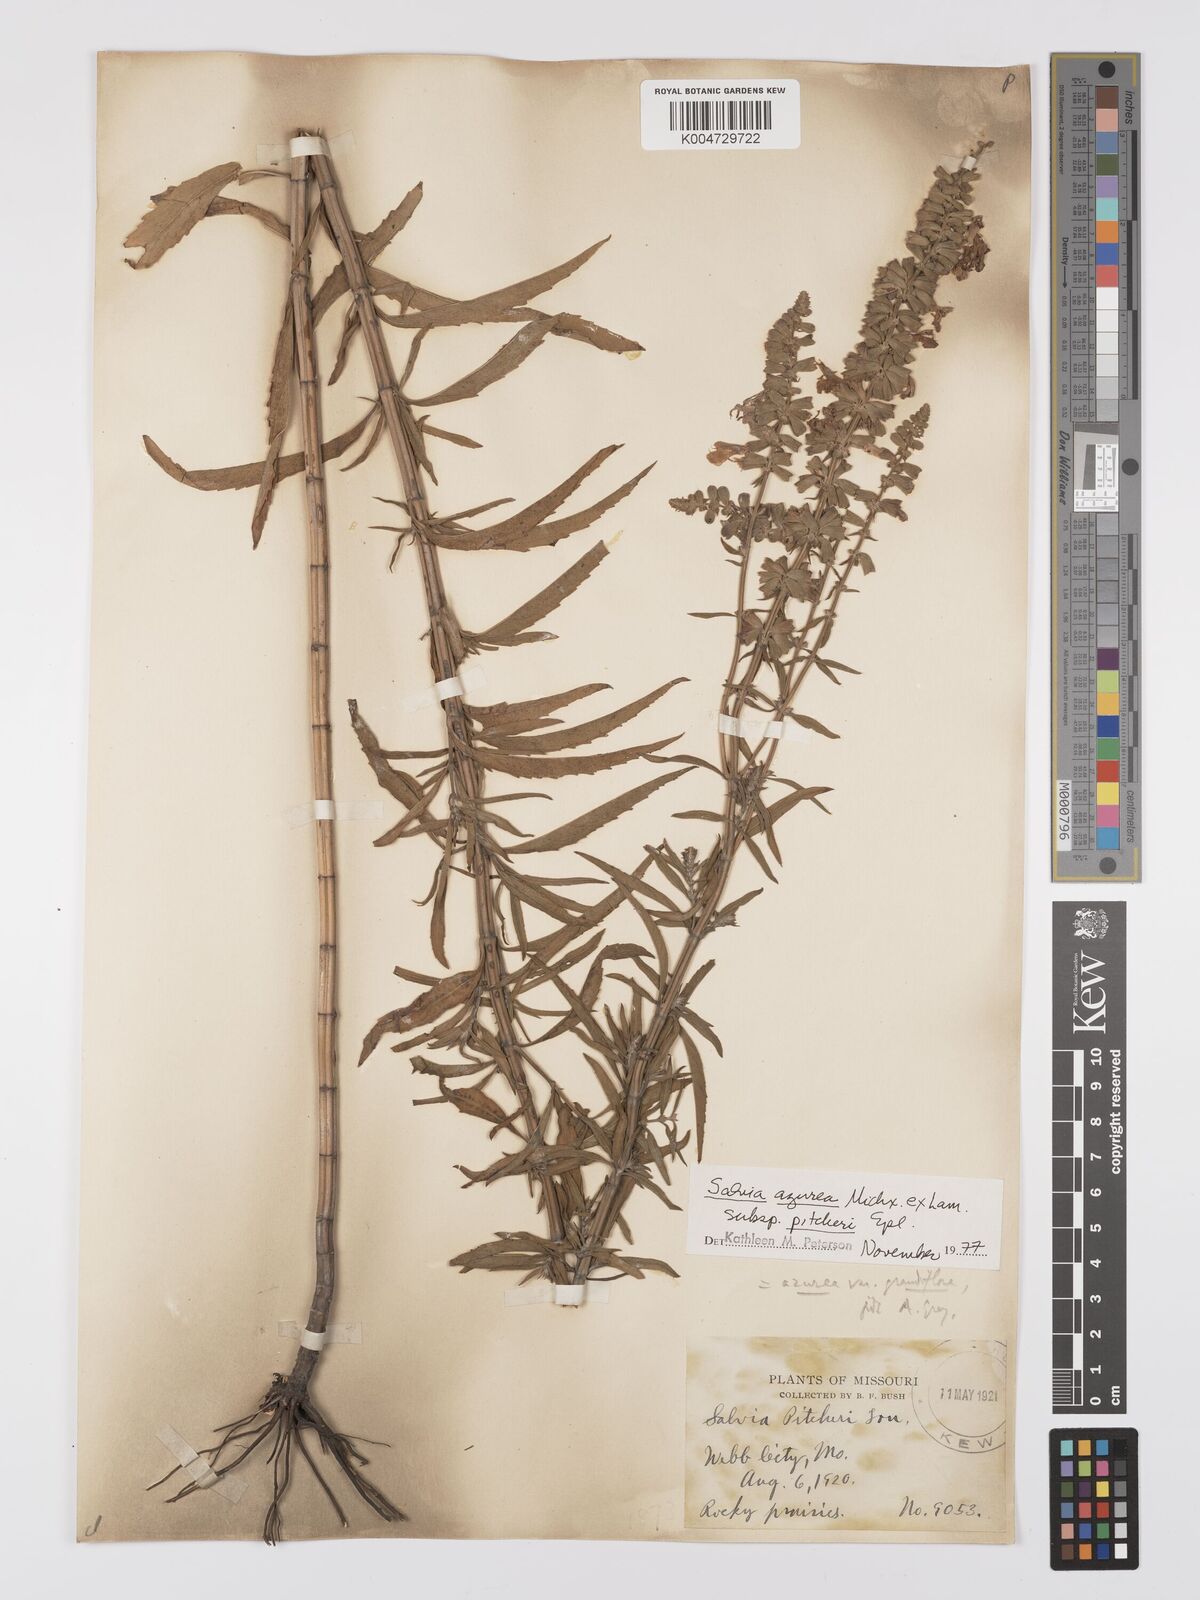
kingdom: Plantae
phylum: Tracheophyta
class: Magnoliopsida
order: Lamiales
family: Lamiaceae
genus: Salvia
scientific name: Salvia azurea
